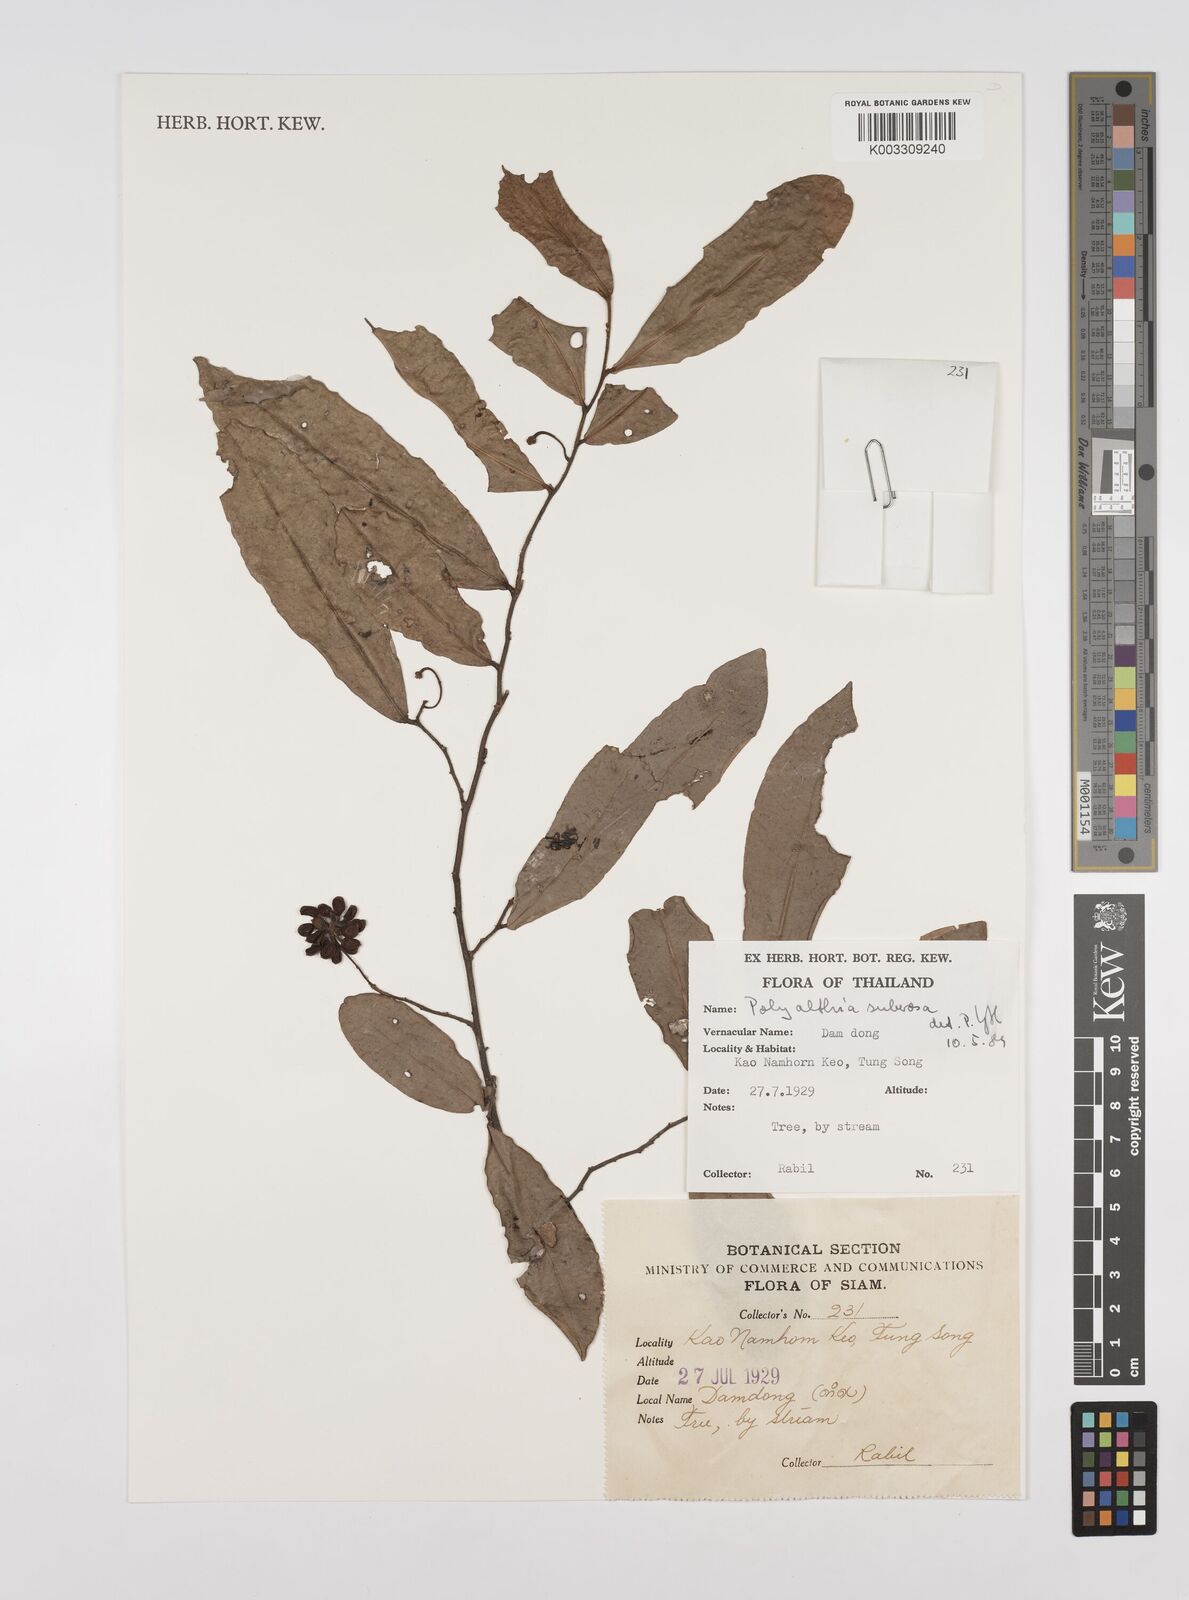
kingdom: Plantae
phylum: Tracheophyta
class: Magnoliopsida
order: Magnoliales
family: Annonaceae
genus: Polyalthia
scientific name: Polyalthia suberosa
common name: Polyalthia plant
